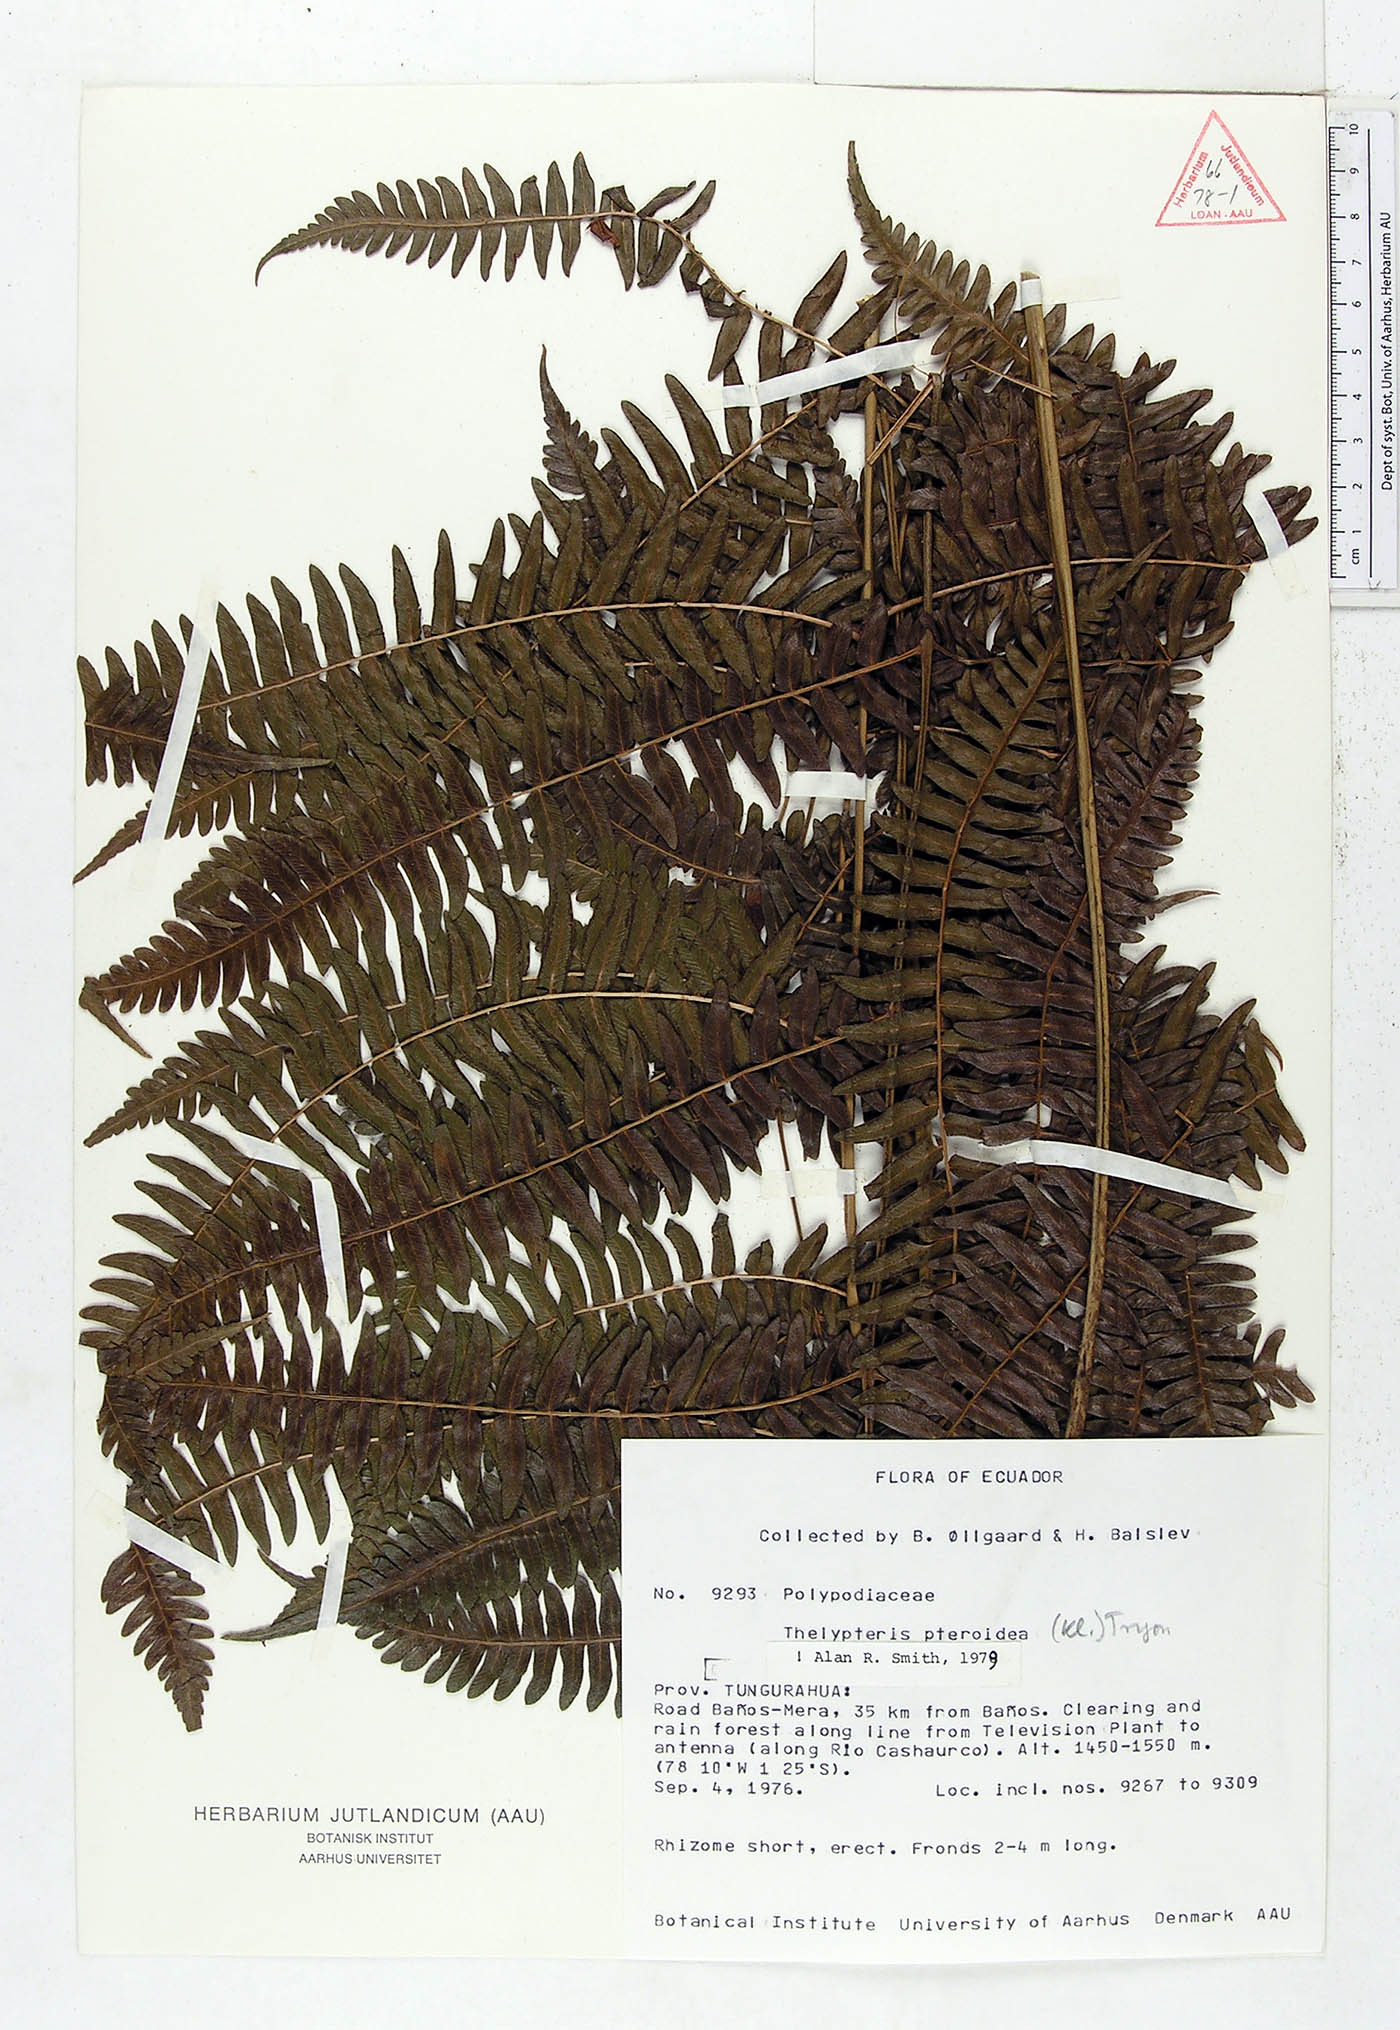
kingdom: Plantae
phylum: Tracheophyta
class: Polypodiopsida
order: Polypodiales
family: Thelypteridaceae
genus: Amauropelta
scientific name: Amauropelta pteroidea
